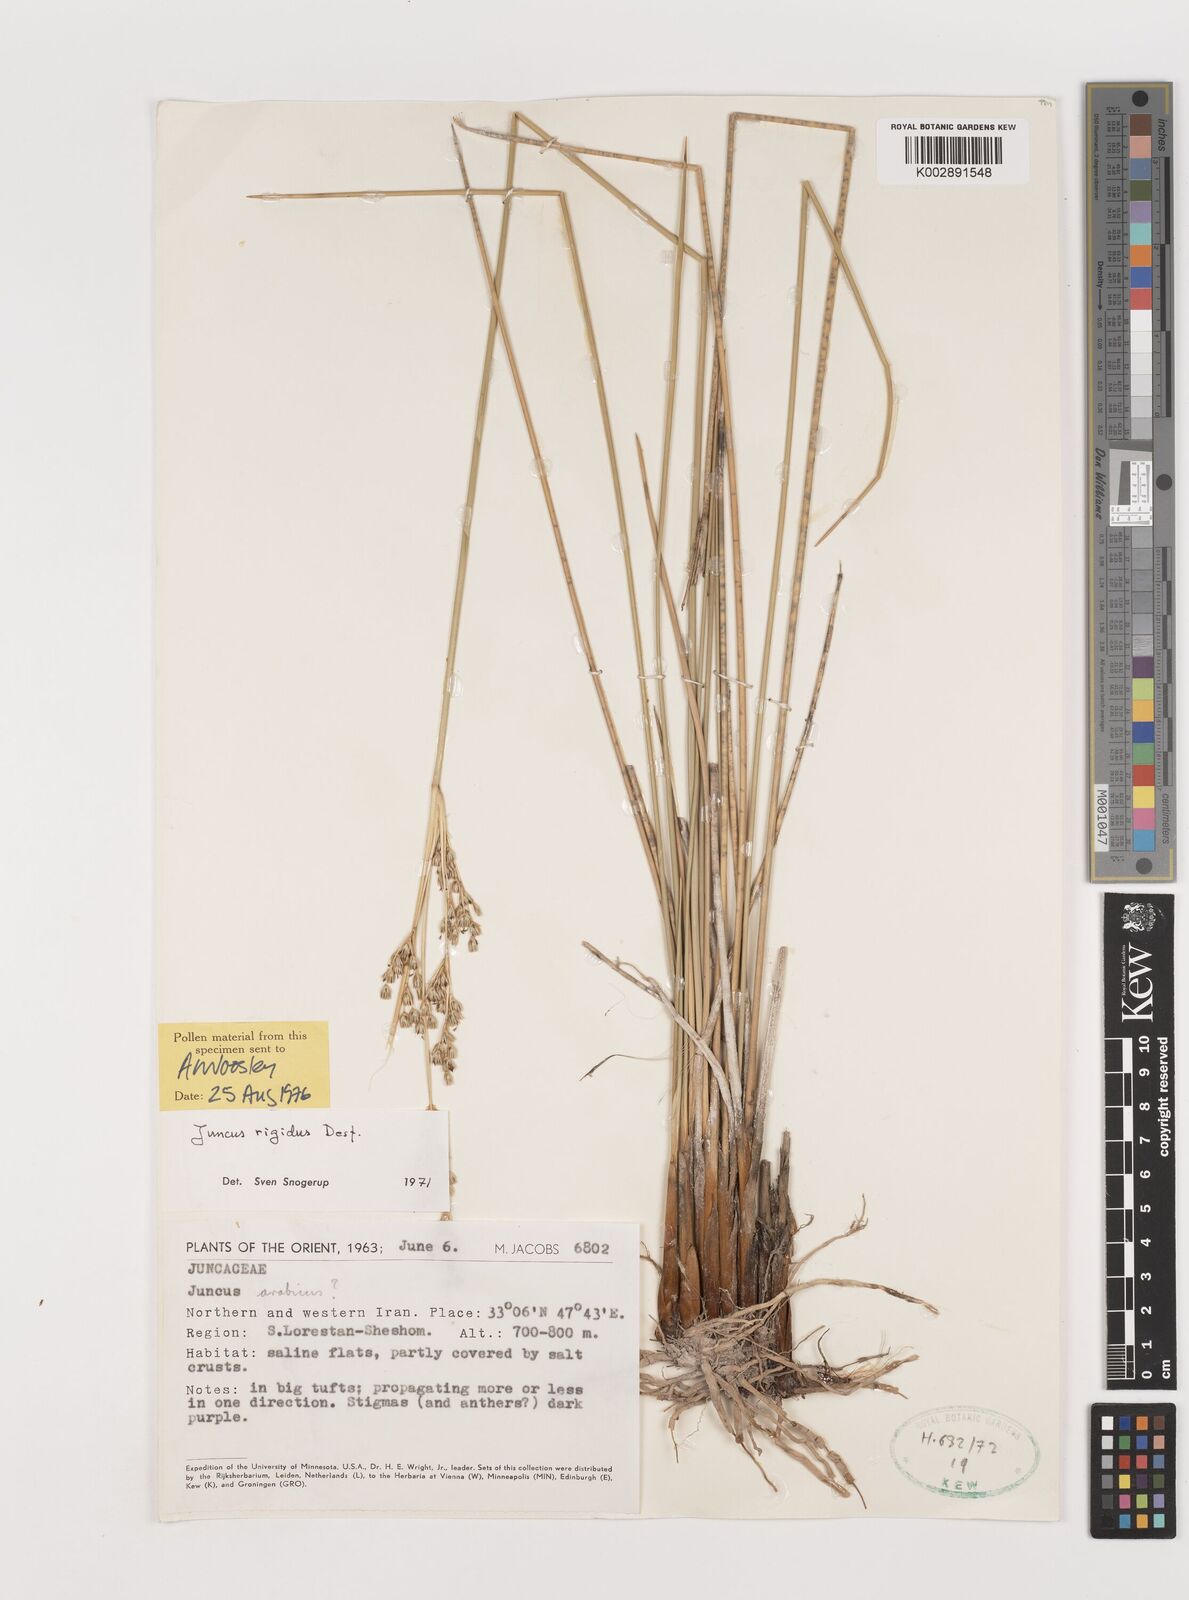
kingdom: Plantae
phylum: Tracheophyta
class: Liliopsida
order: Poales
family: Juncaceae
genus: Juncus
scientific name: Juncus rigidus
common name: Hard sea rush
